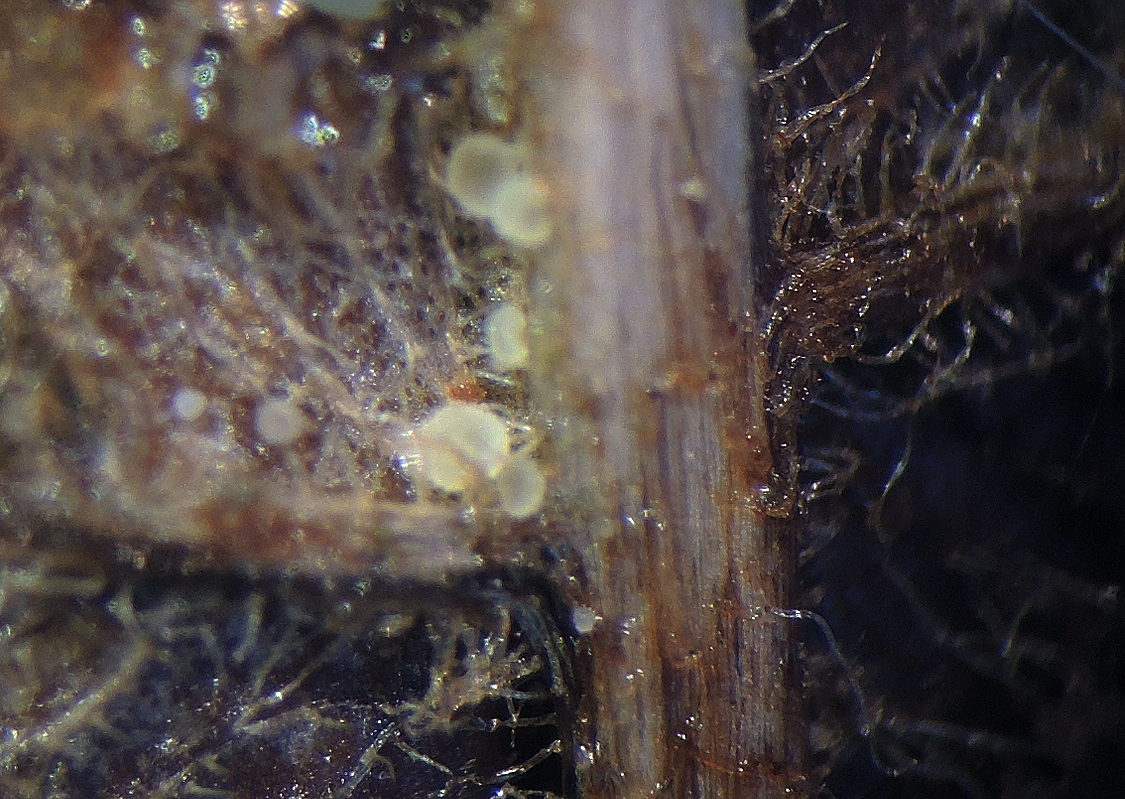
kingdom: Fungi
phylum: Ascomycota
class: Leotiomycetes
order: Helotiales
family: Hyaloscyphaceae
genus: Hyaloscypha
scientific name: Hyaloscypha flaveola
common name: bregne-hårskive
